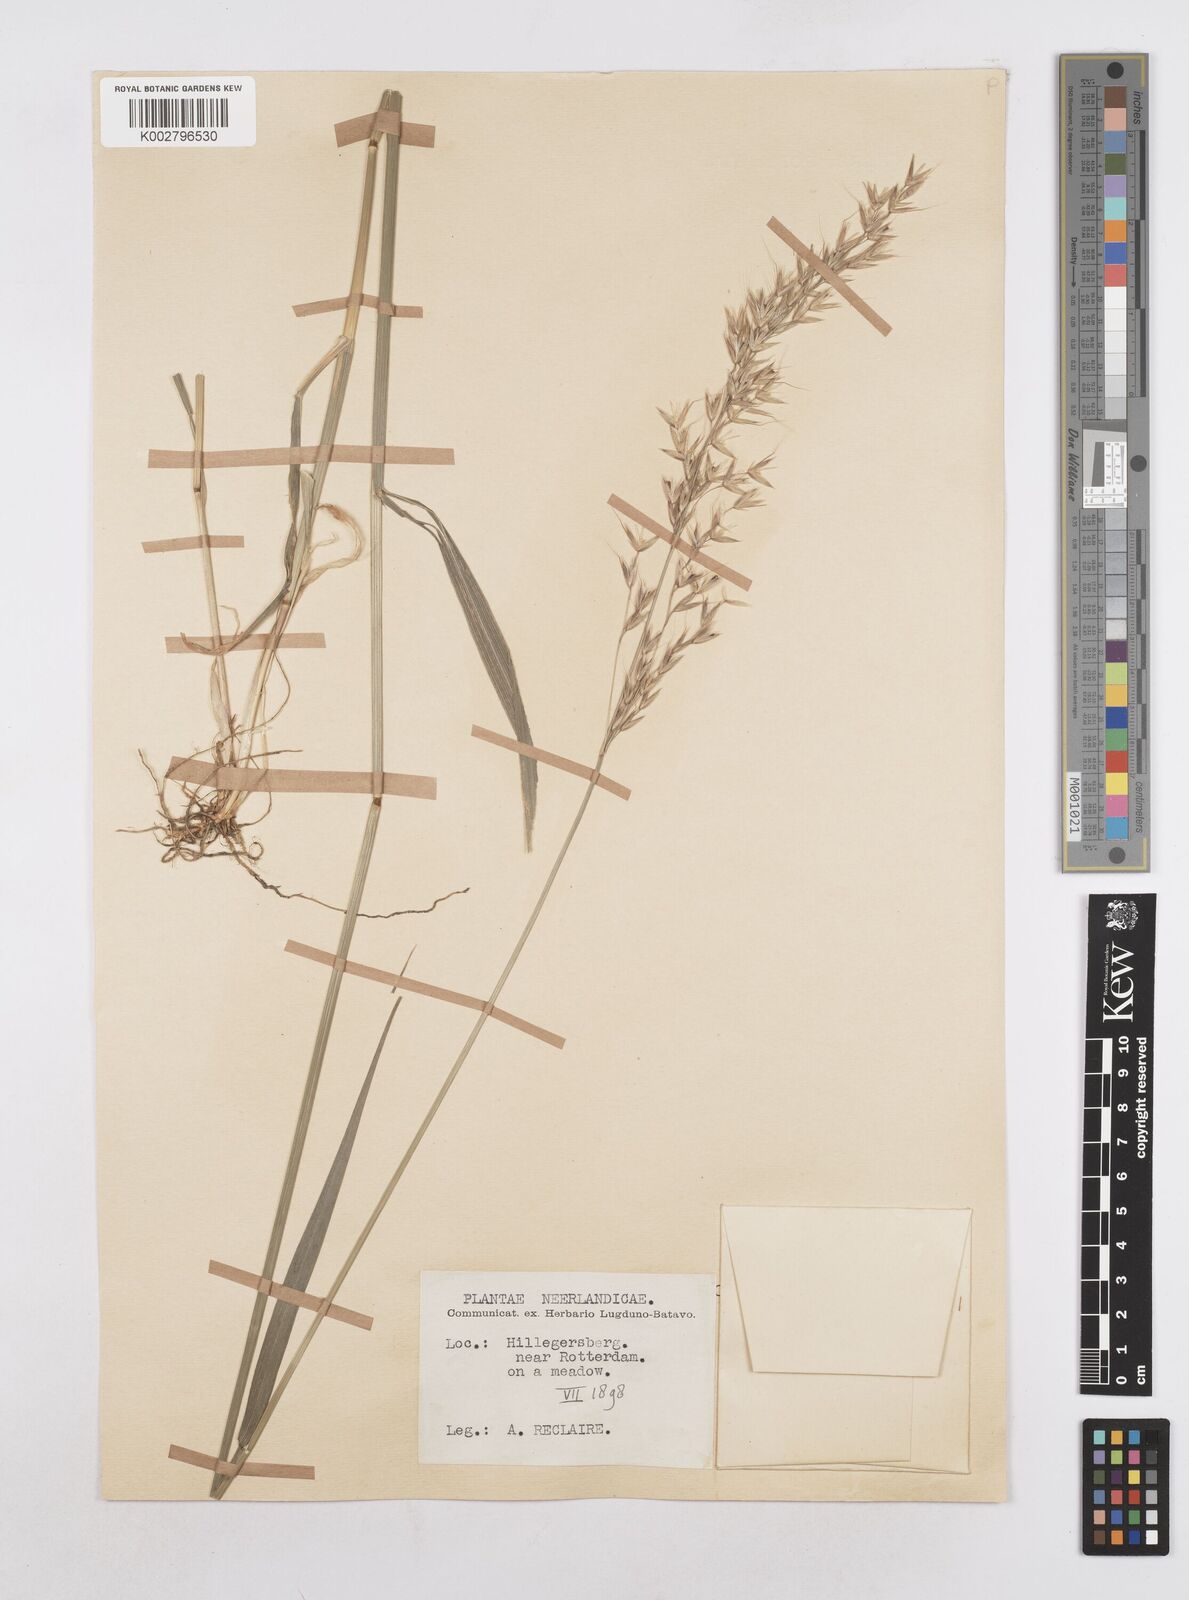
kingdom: Plantae
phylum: Tracheophyta
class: Liliopsida
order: Poales
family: Poaceae
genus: Arrhenatherum
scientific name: Arrhenatherum elatius
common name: Tall oatgrass
